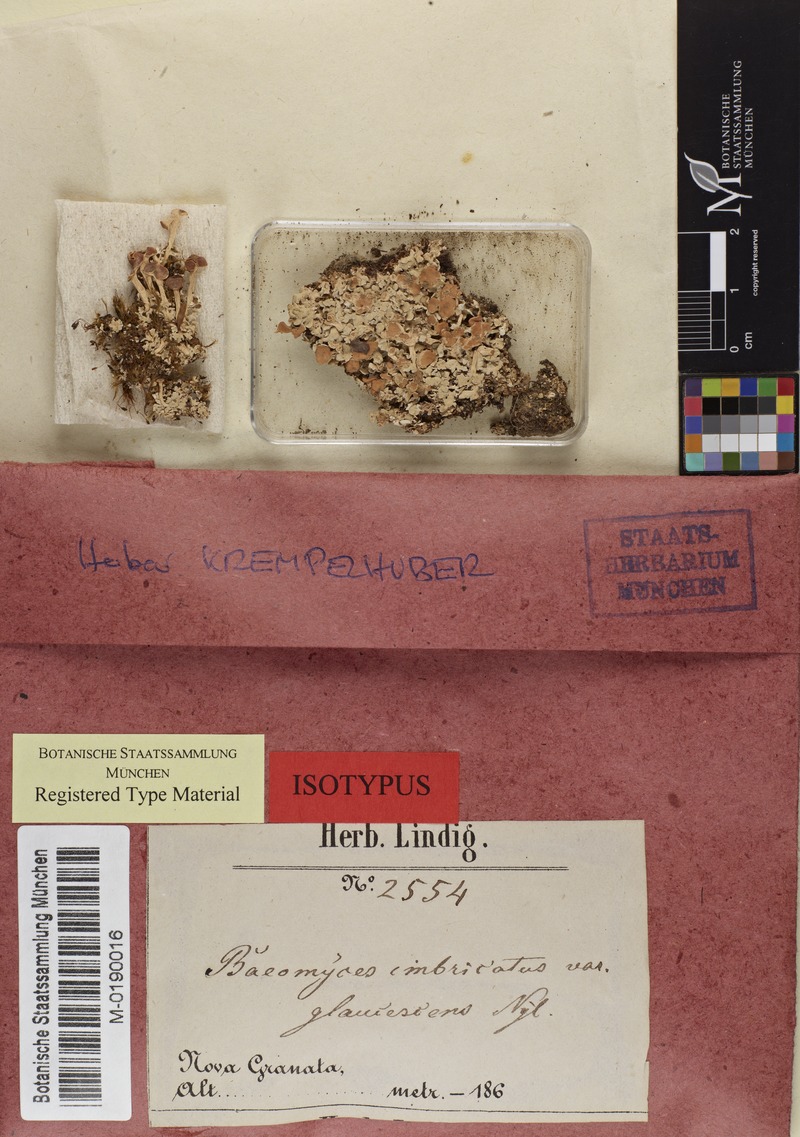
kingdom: Fungi
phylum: Ascomycota
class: Lecanoromycetes
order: Baeomycetales
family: Baeomycetaceae
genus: Phyllobaeis
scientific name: Phyllobaeis imbricata
